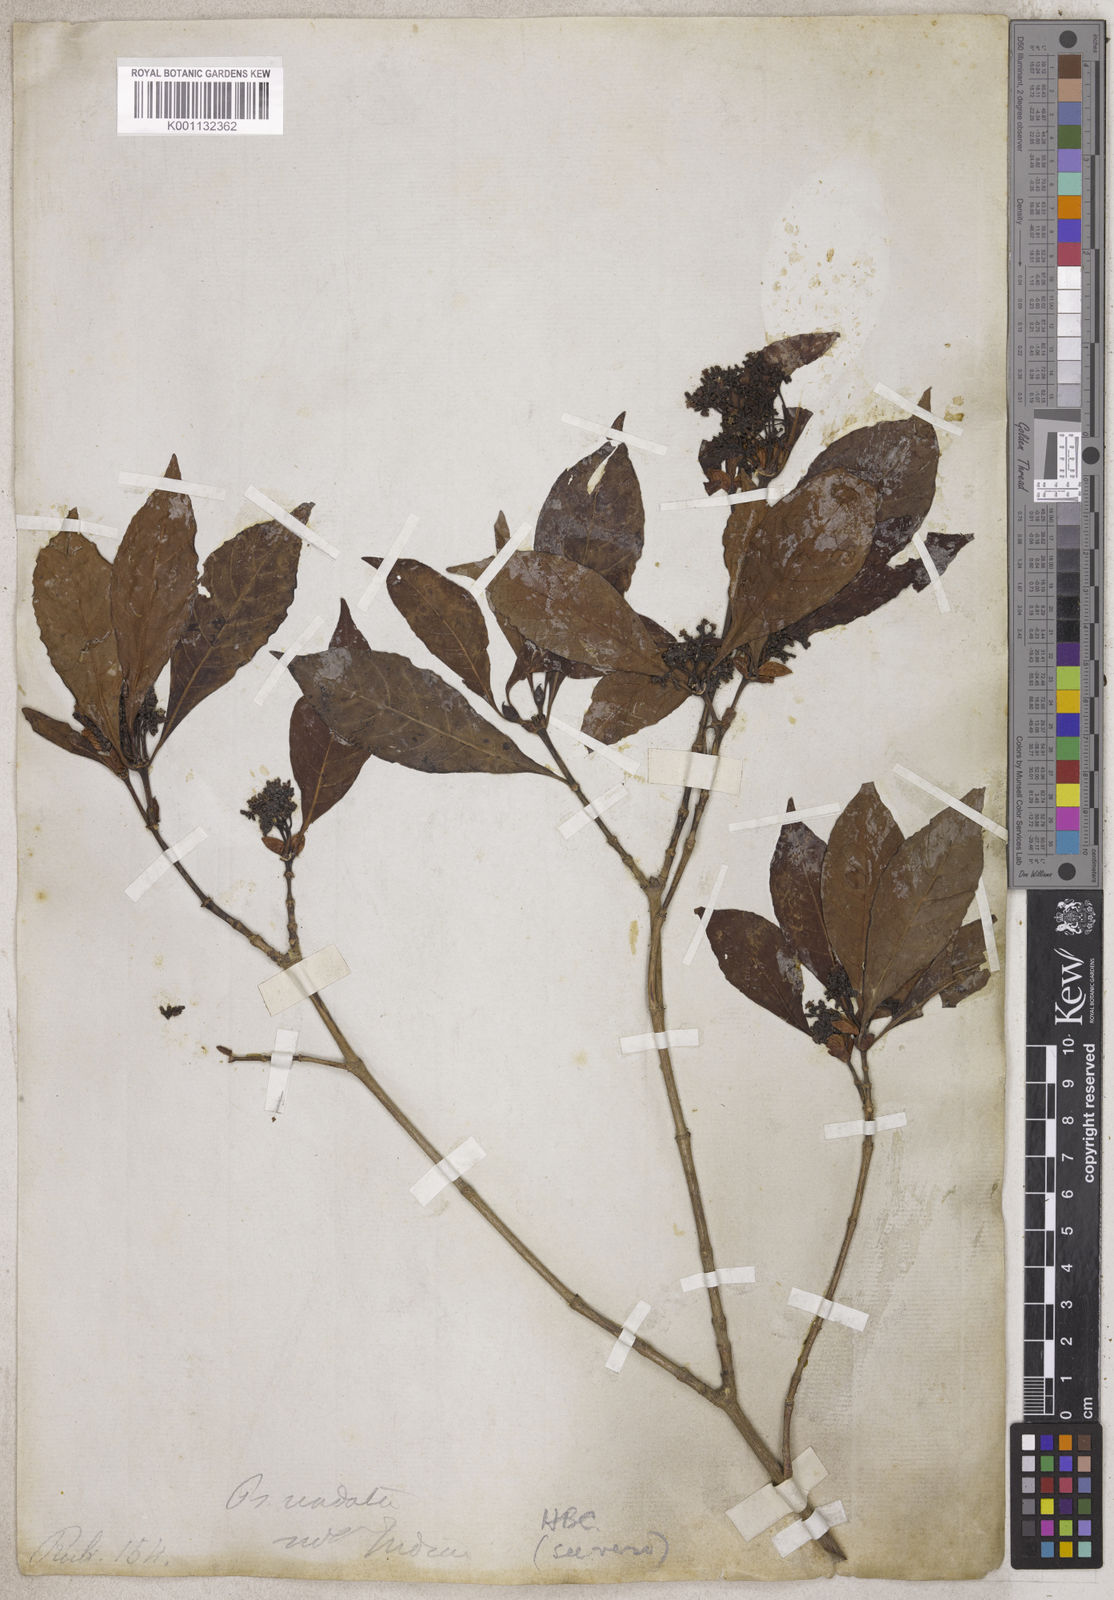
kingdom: Plantae
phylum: Tracheophyta
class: Magnoliopsida
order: Gentianales
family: Rubiaceae
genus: Psychotria
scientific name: Psychotria
